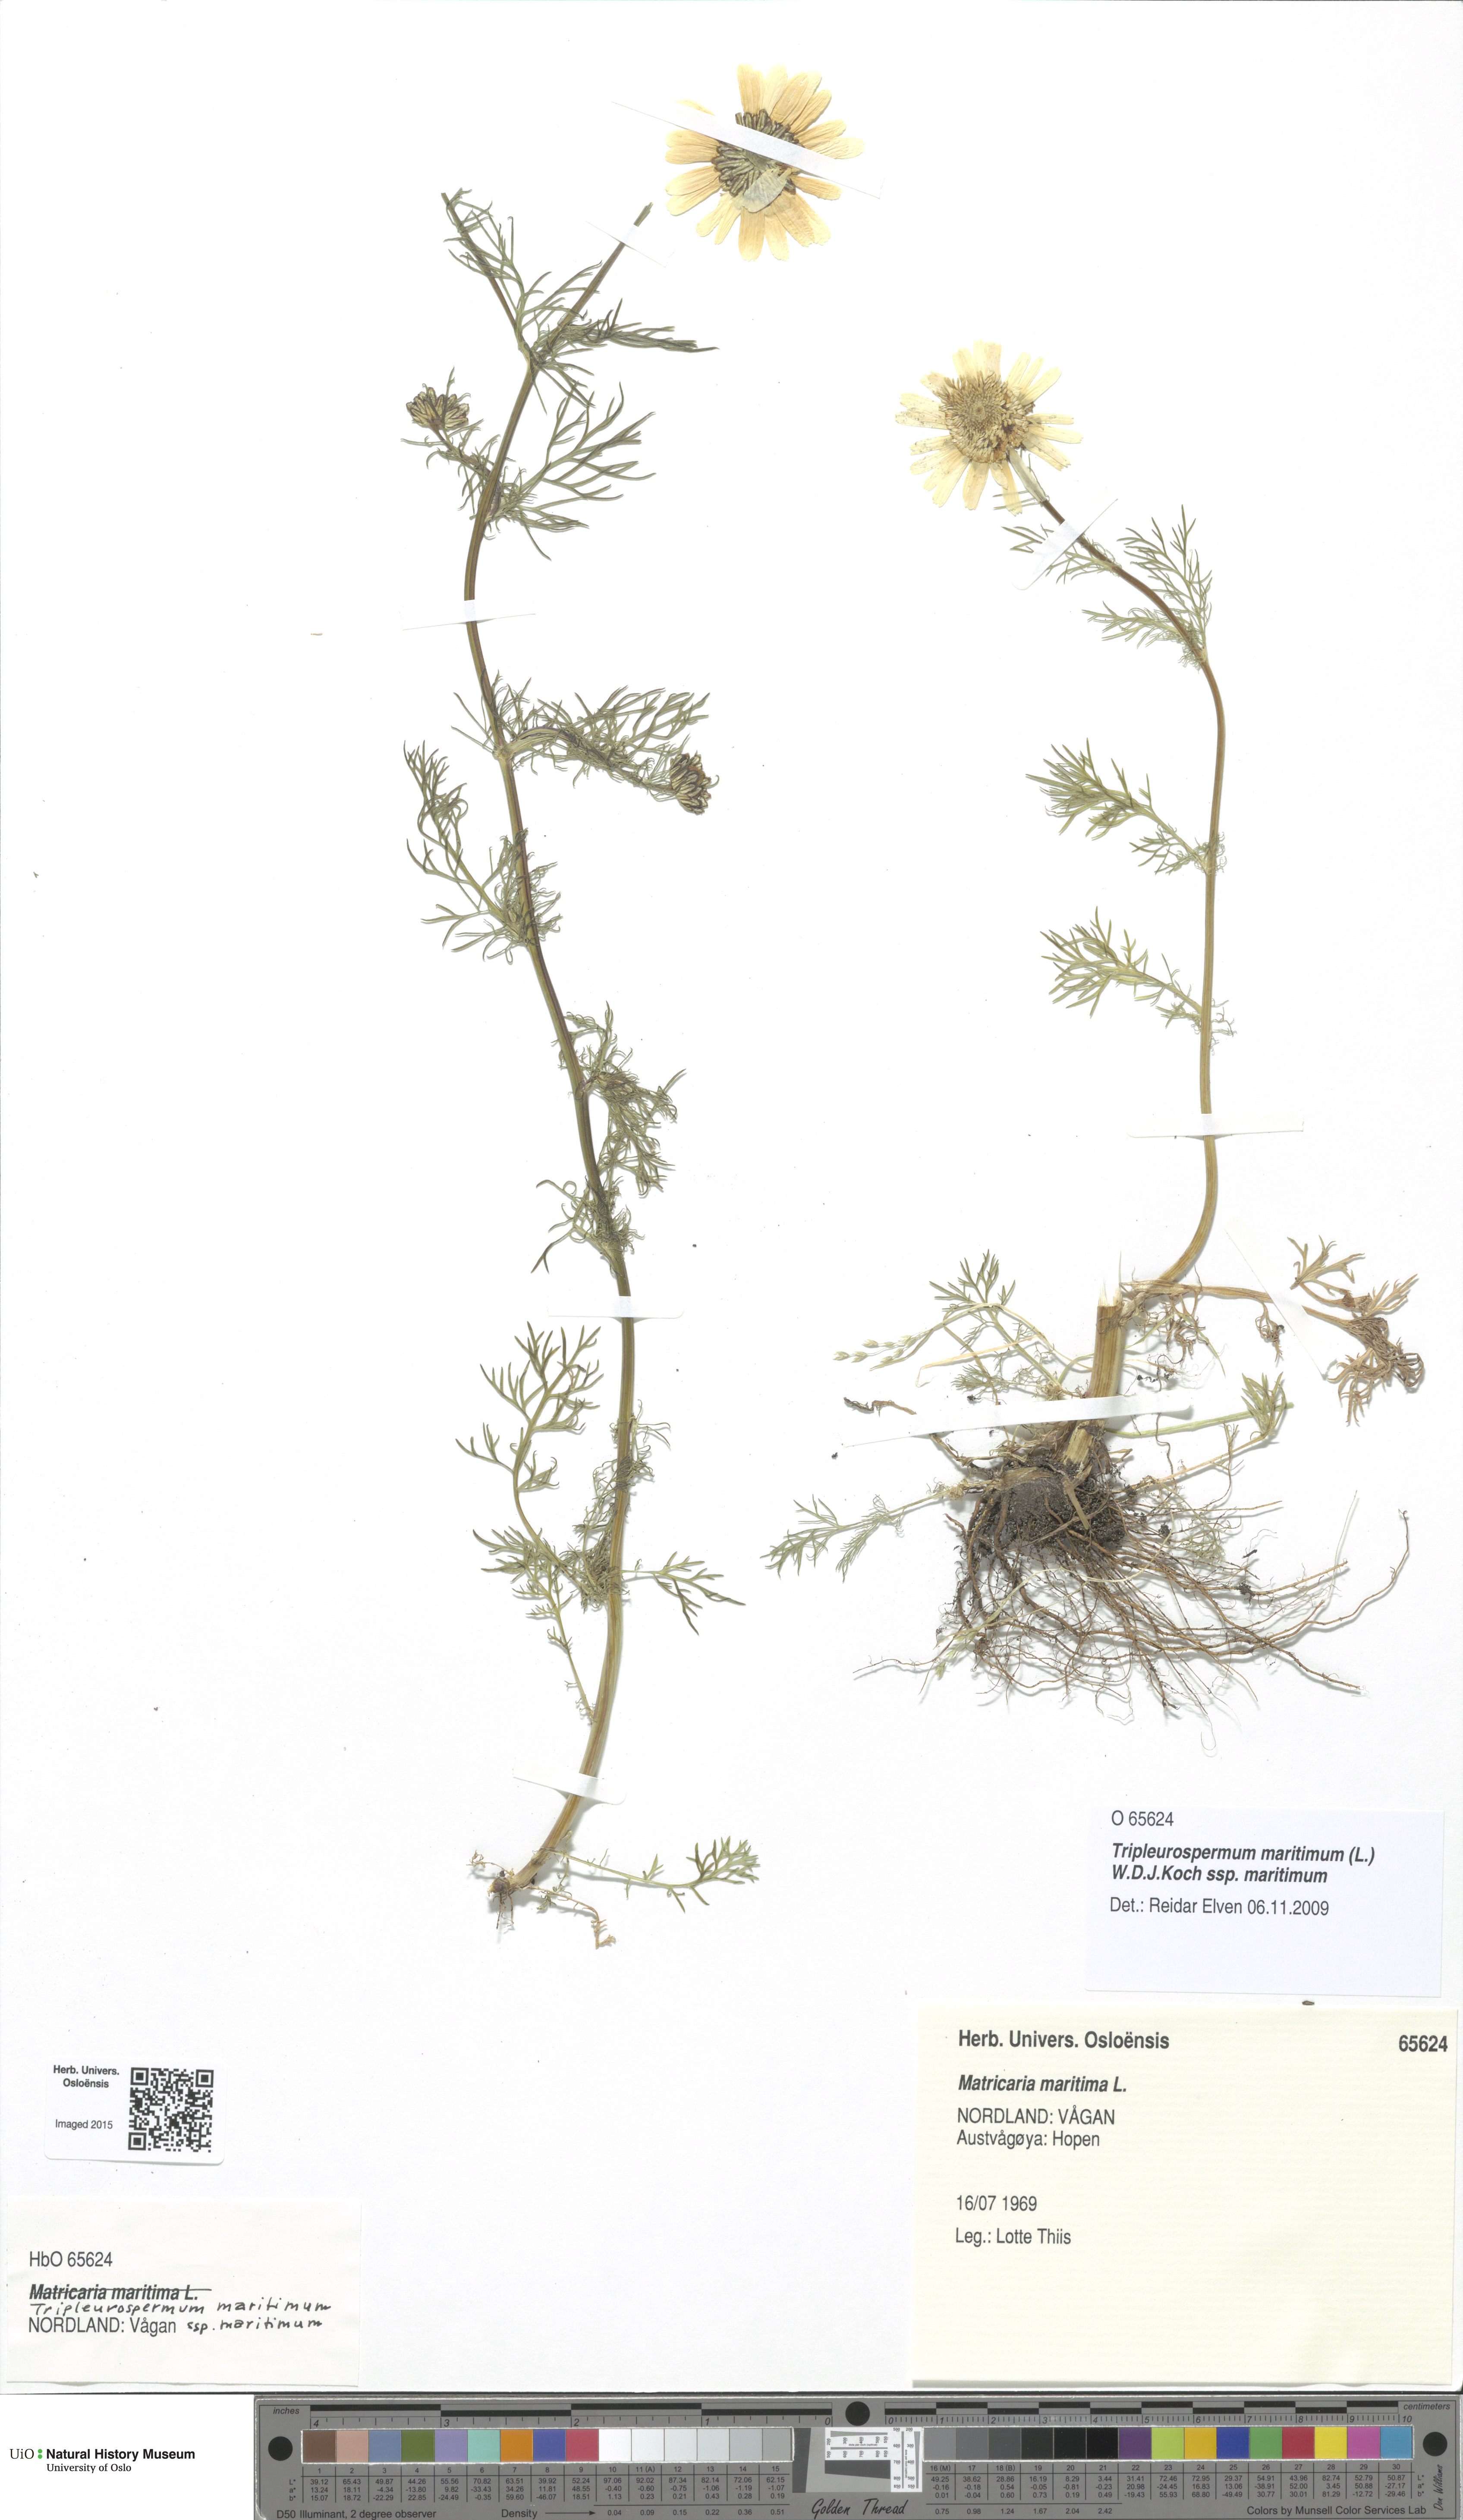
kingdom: Plantae
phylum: Tracheophyta
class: Magnoliopsida
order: Asterales
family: Asteraceae
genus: Tripleurospermum
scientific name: Tripleurospermum maritimum
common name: Sea mayweed
